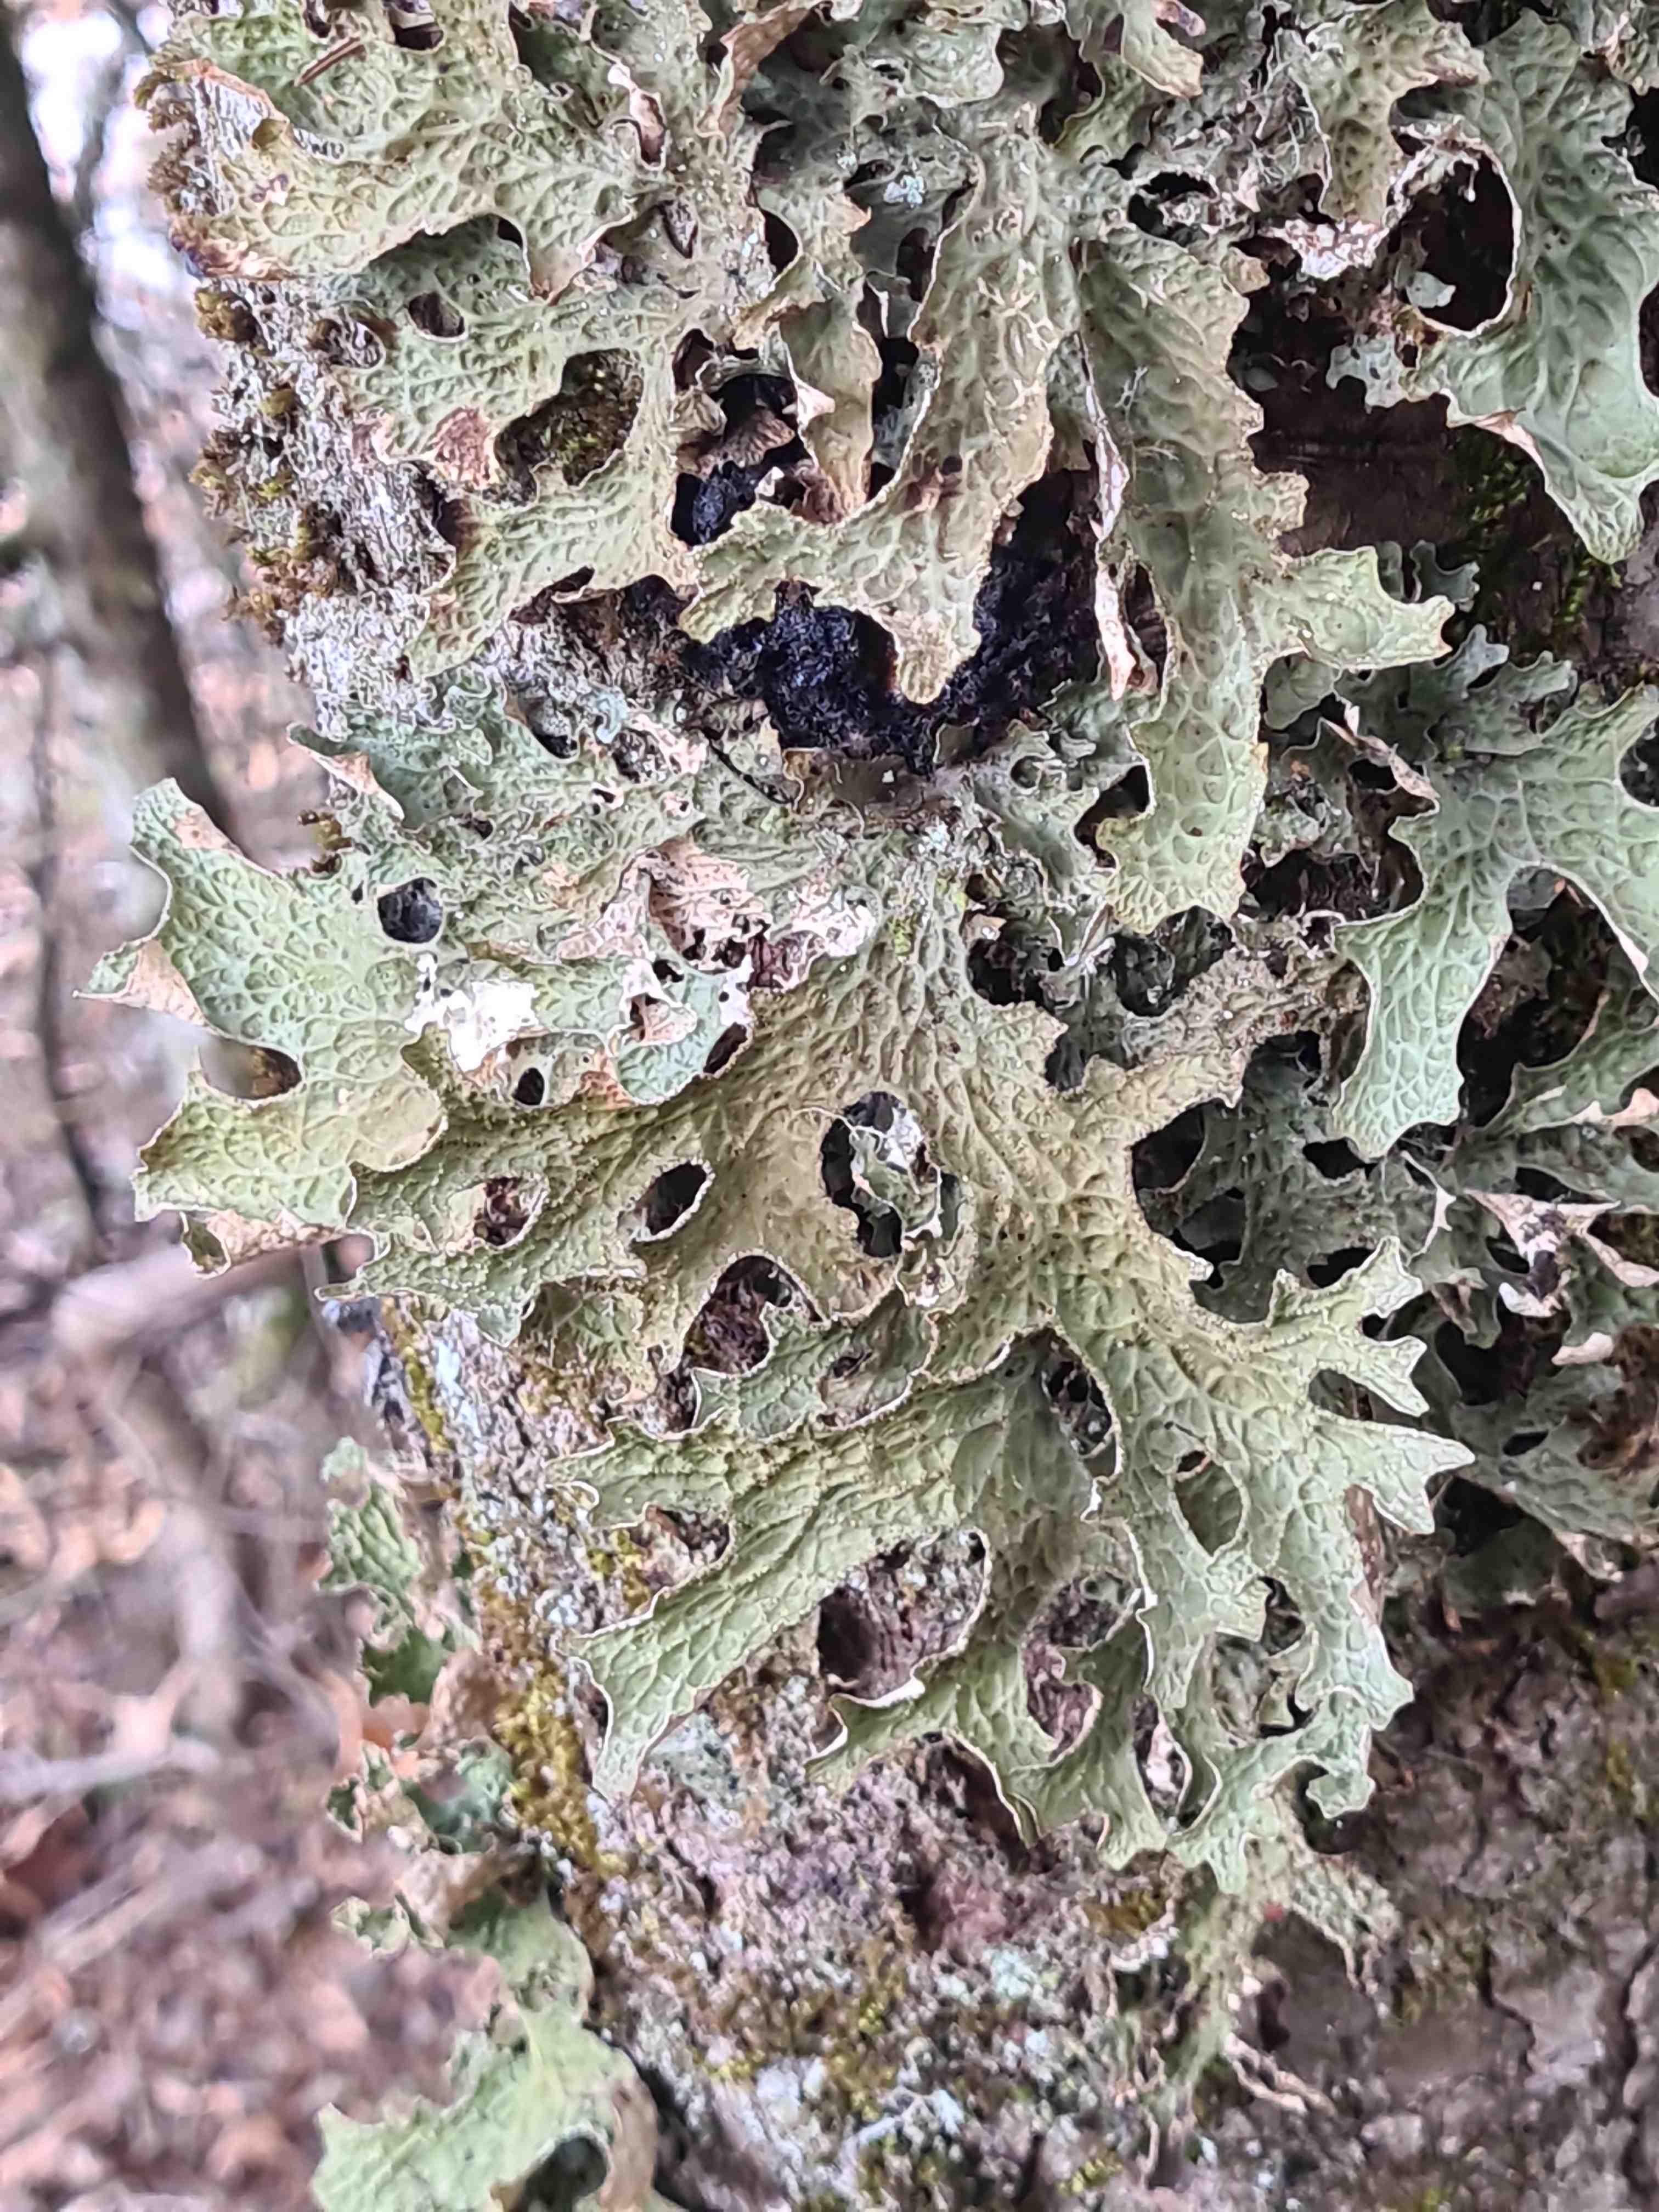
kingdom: Fungi
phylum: Ascomycota
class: Lecanoromycetes
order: Peltigerales
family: Lobariaceae
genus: Lobaria
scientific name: Lobaria pulmonaria
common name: almindelig lungelav
